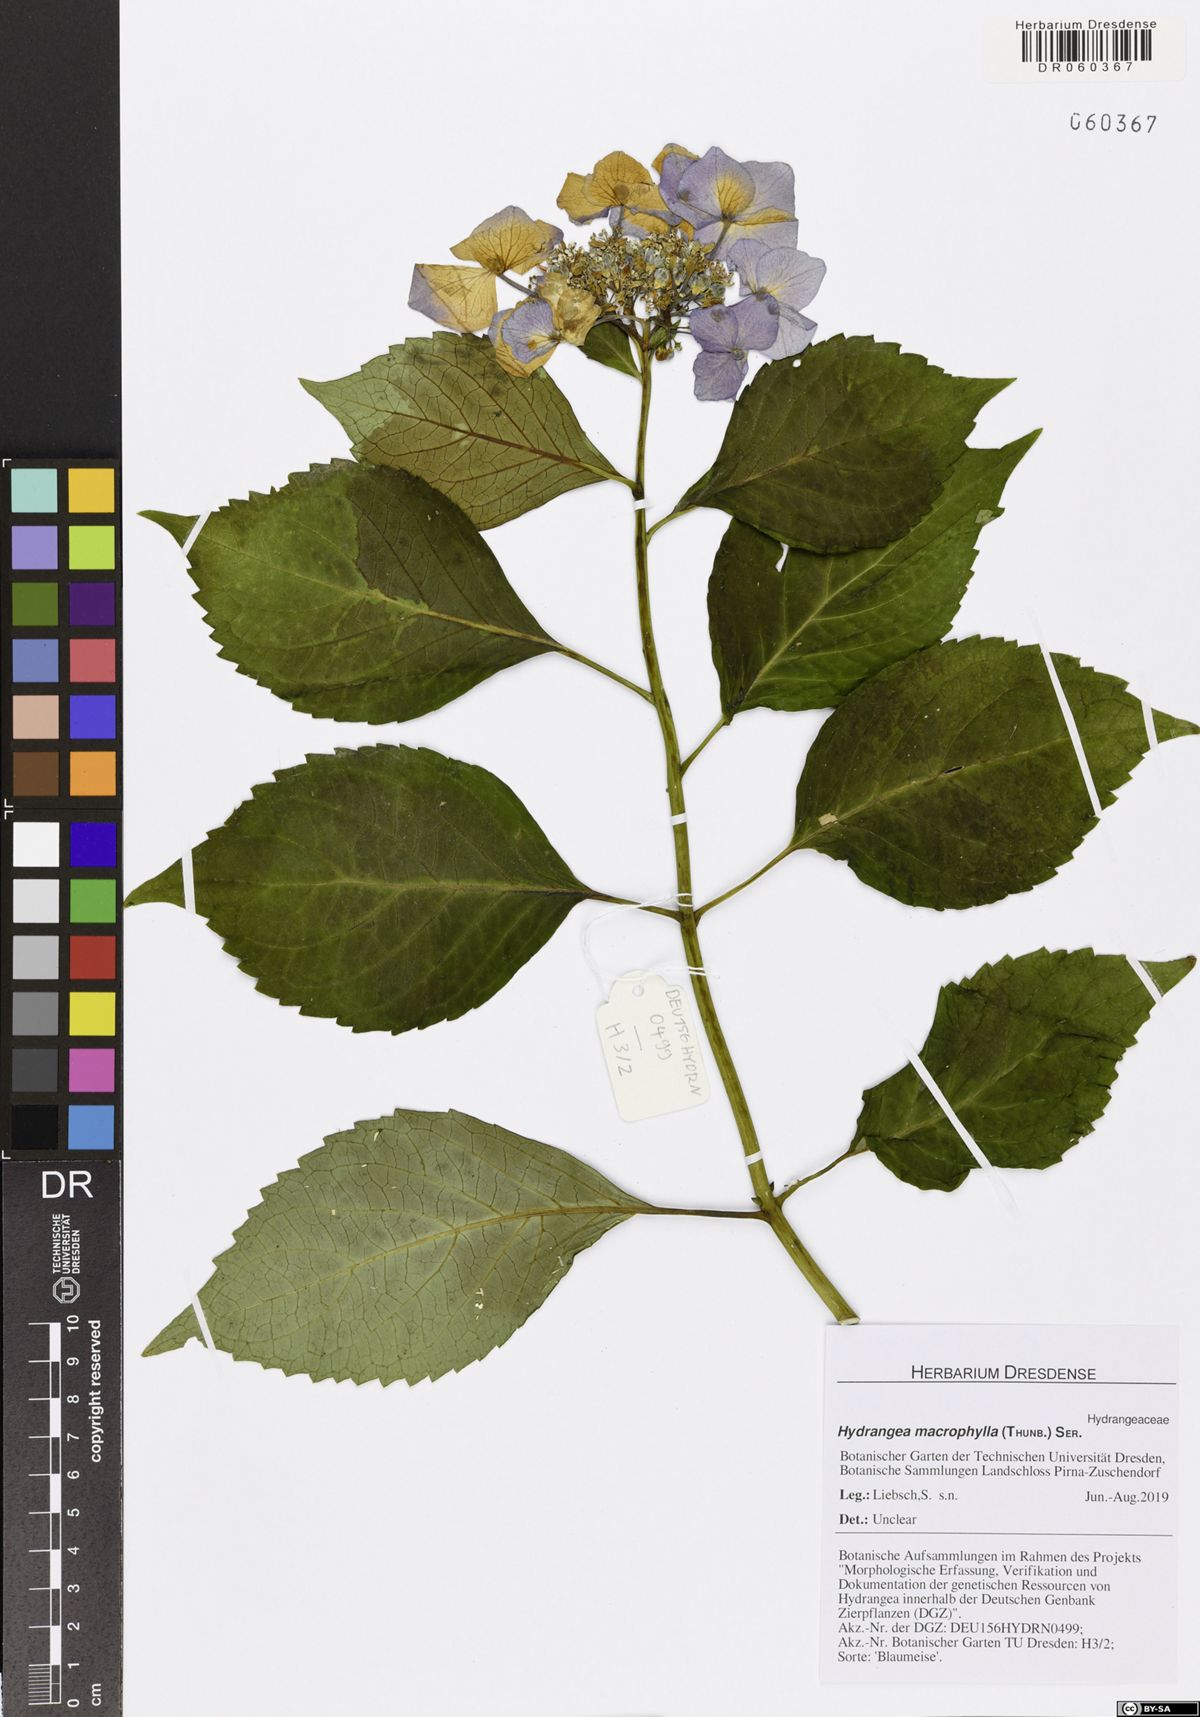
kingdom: Plantae
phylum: Tracheophyta
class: Magnoliopsida
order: Cornales
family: Hydrangeaceae
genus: Hydrangea
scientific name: Hydrangea macrophylla
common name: Hydrangea
